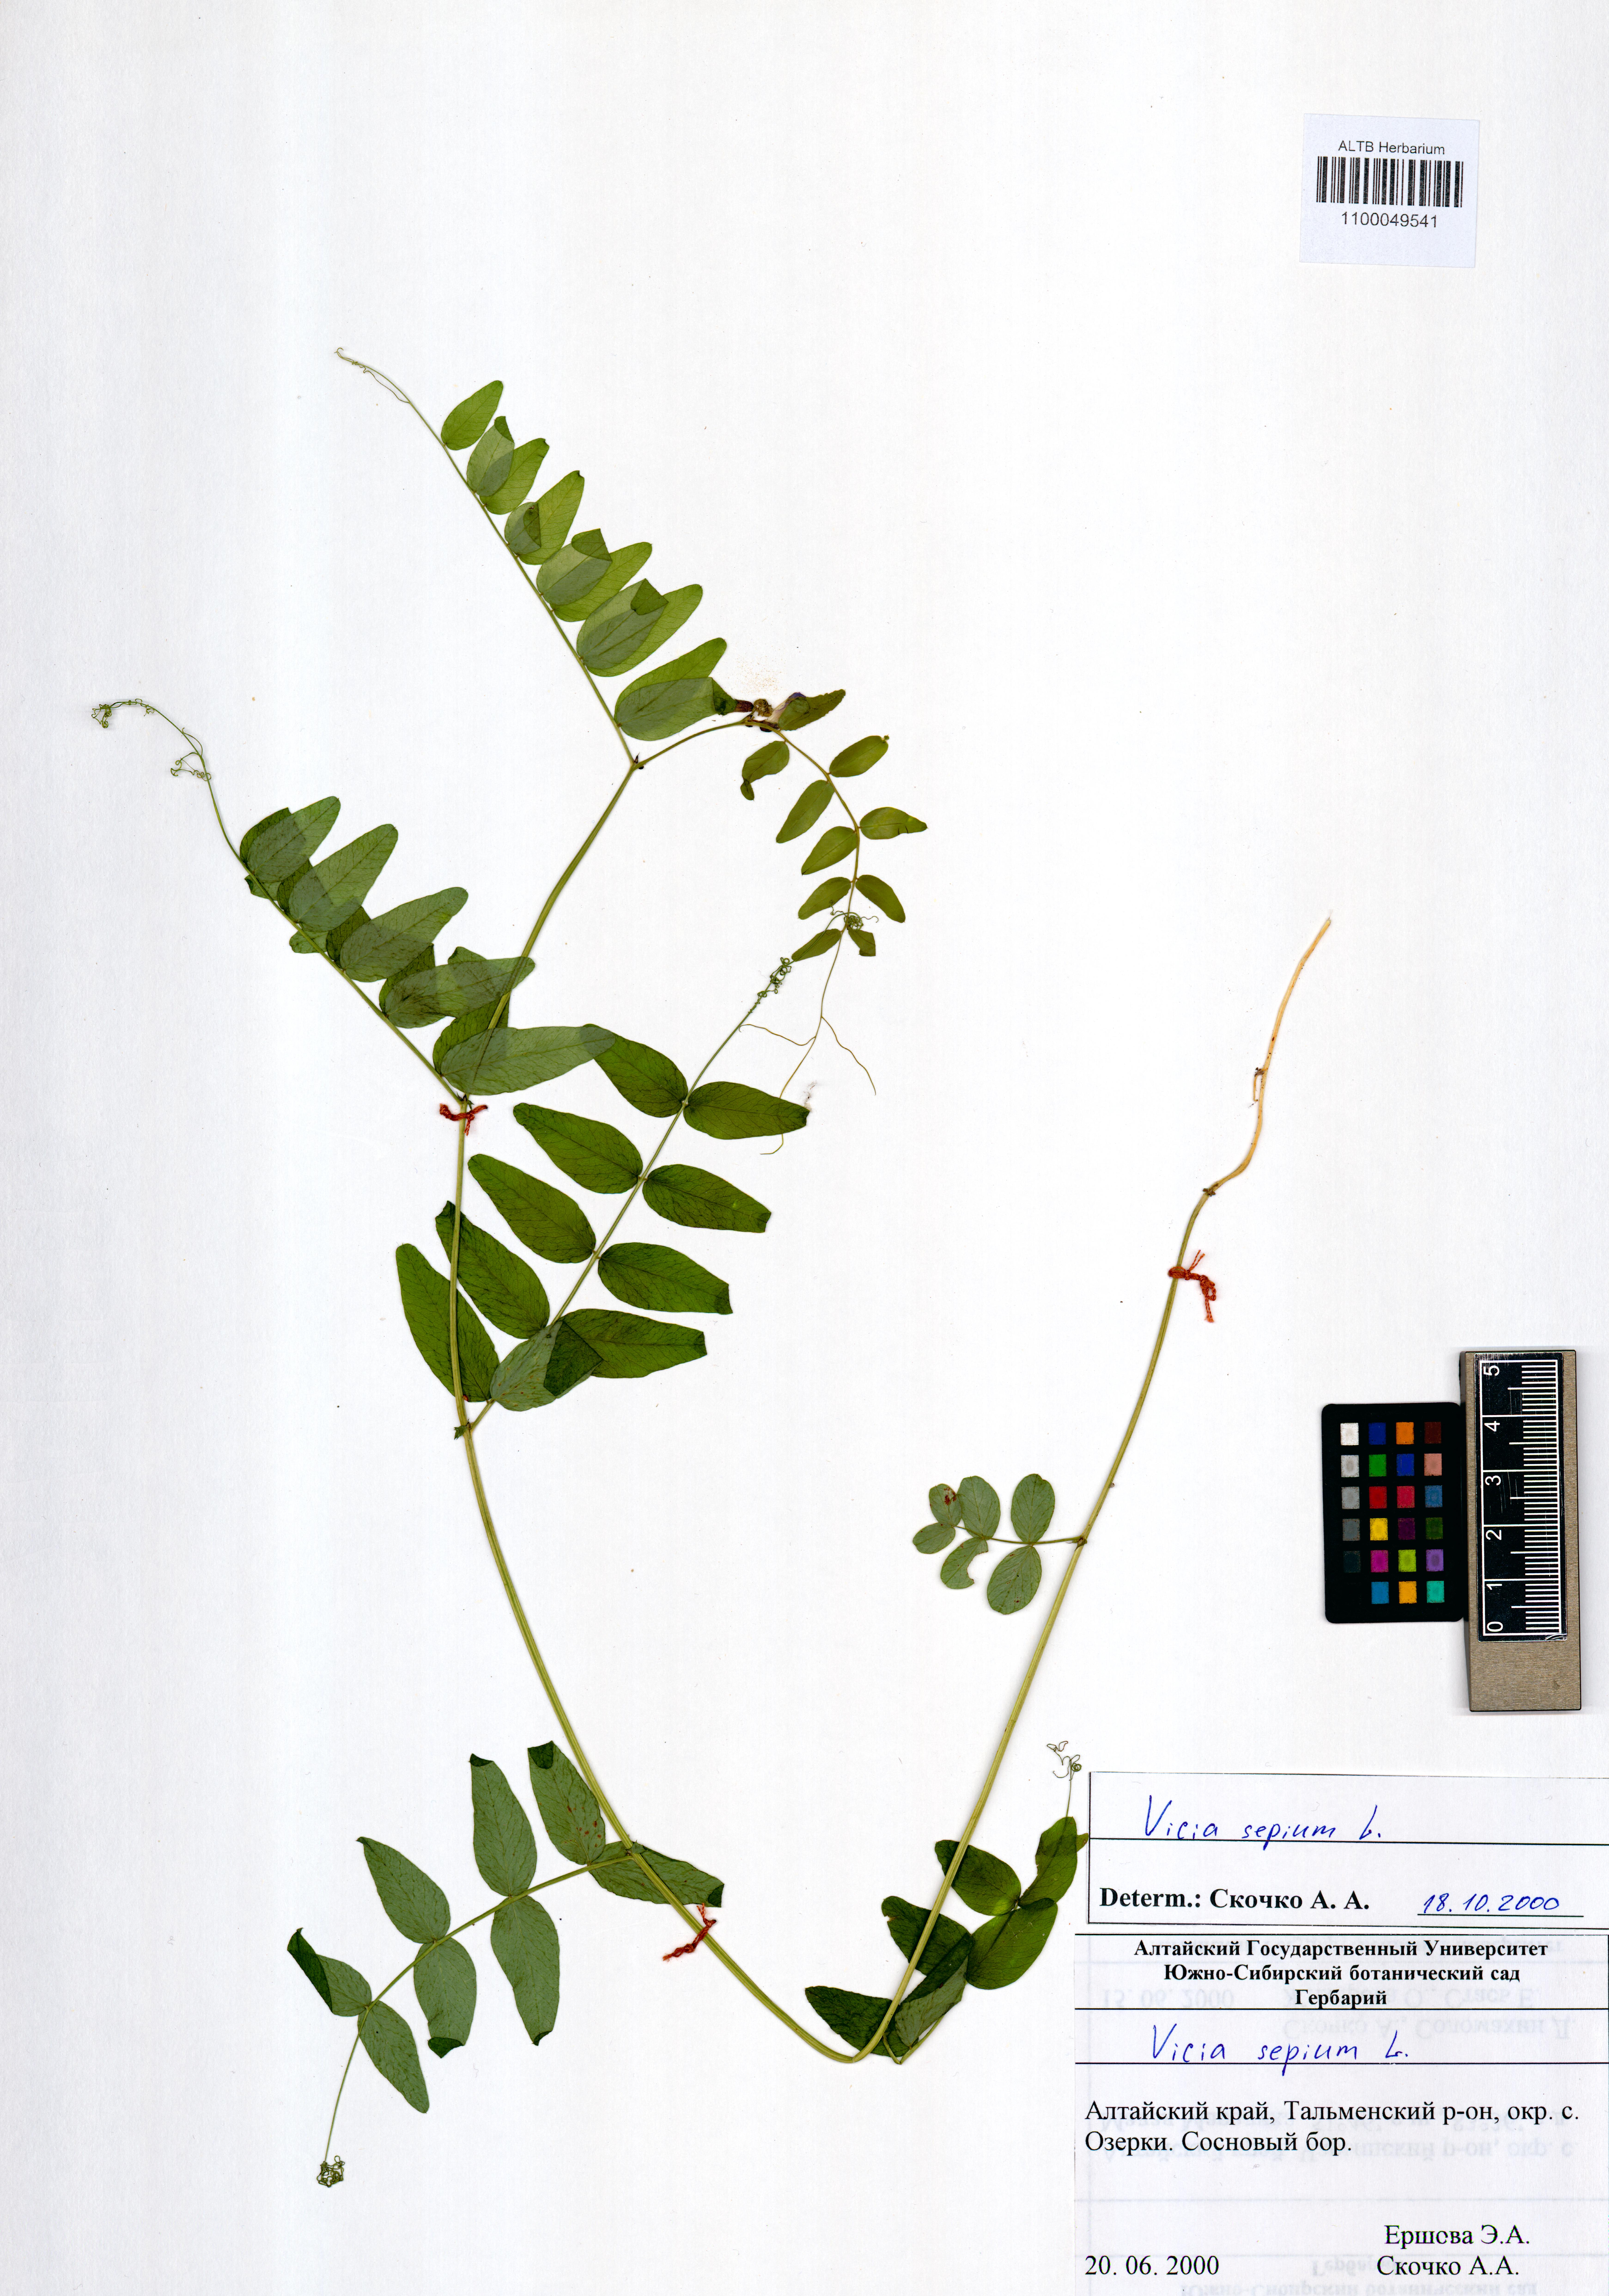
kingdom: Plantae
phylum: Tracheophyta
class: Magnoliopsida
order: Fabales
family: Fabaceae
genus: Vicia
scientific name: Vicia sepium
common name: Bush vetch
